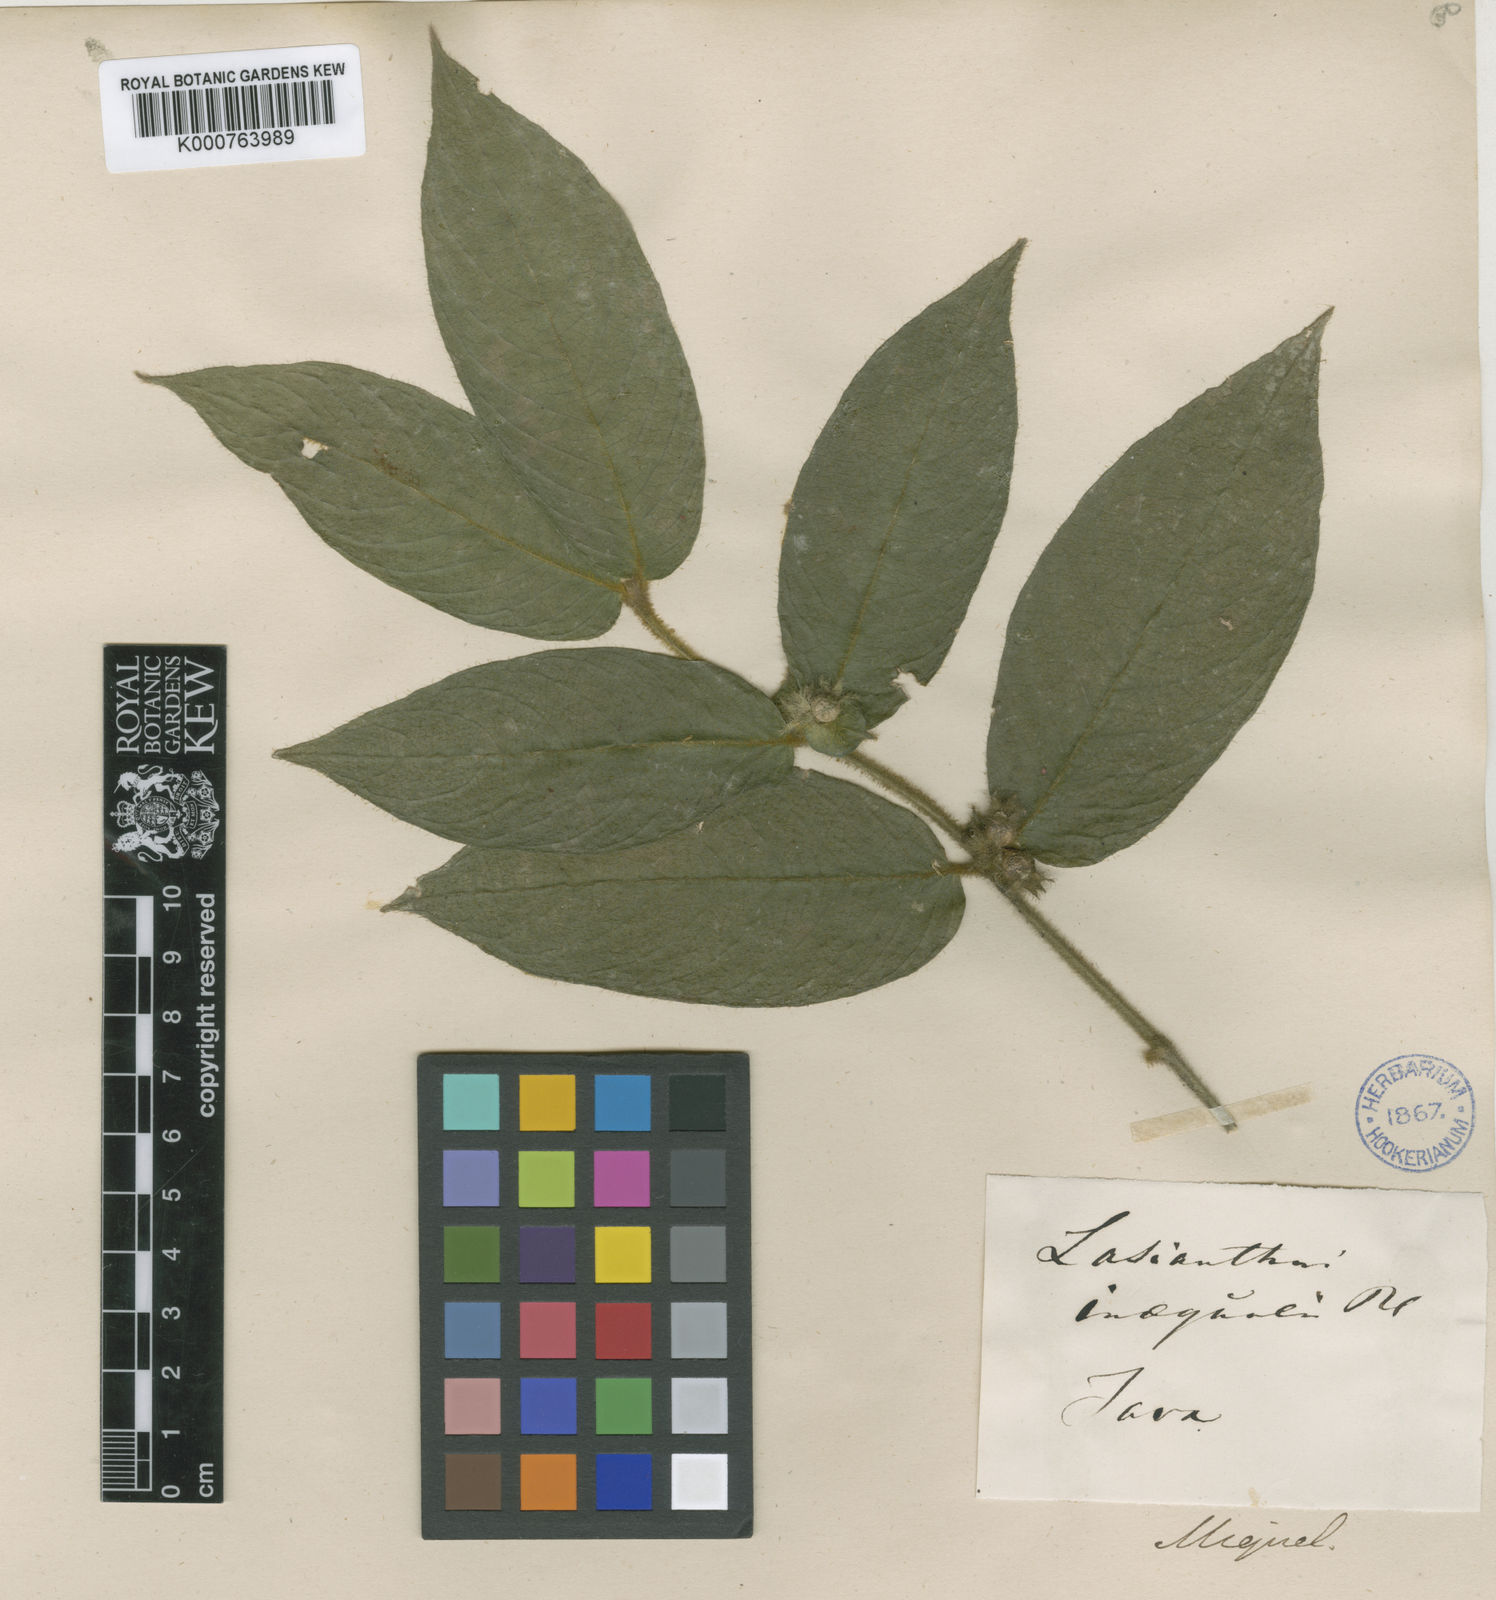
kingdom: Plantae
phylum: Tracheophyta
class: Magnoliopsida
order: Gentianales
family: Rubiaceae
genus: Lasianthus
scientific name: Lasianthus cyanocarpus
